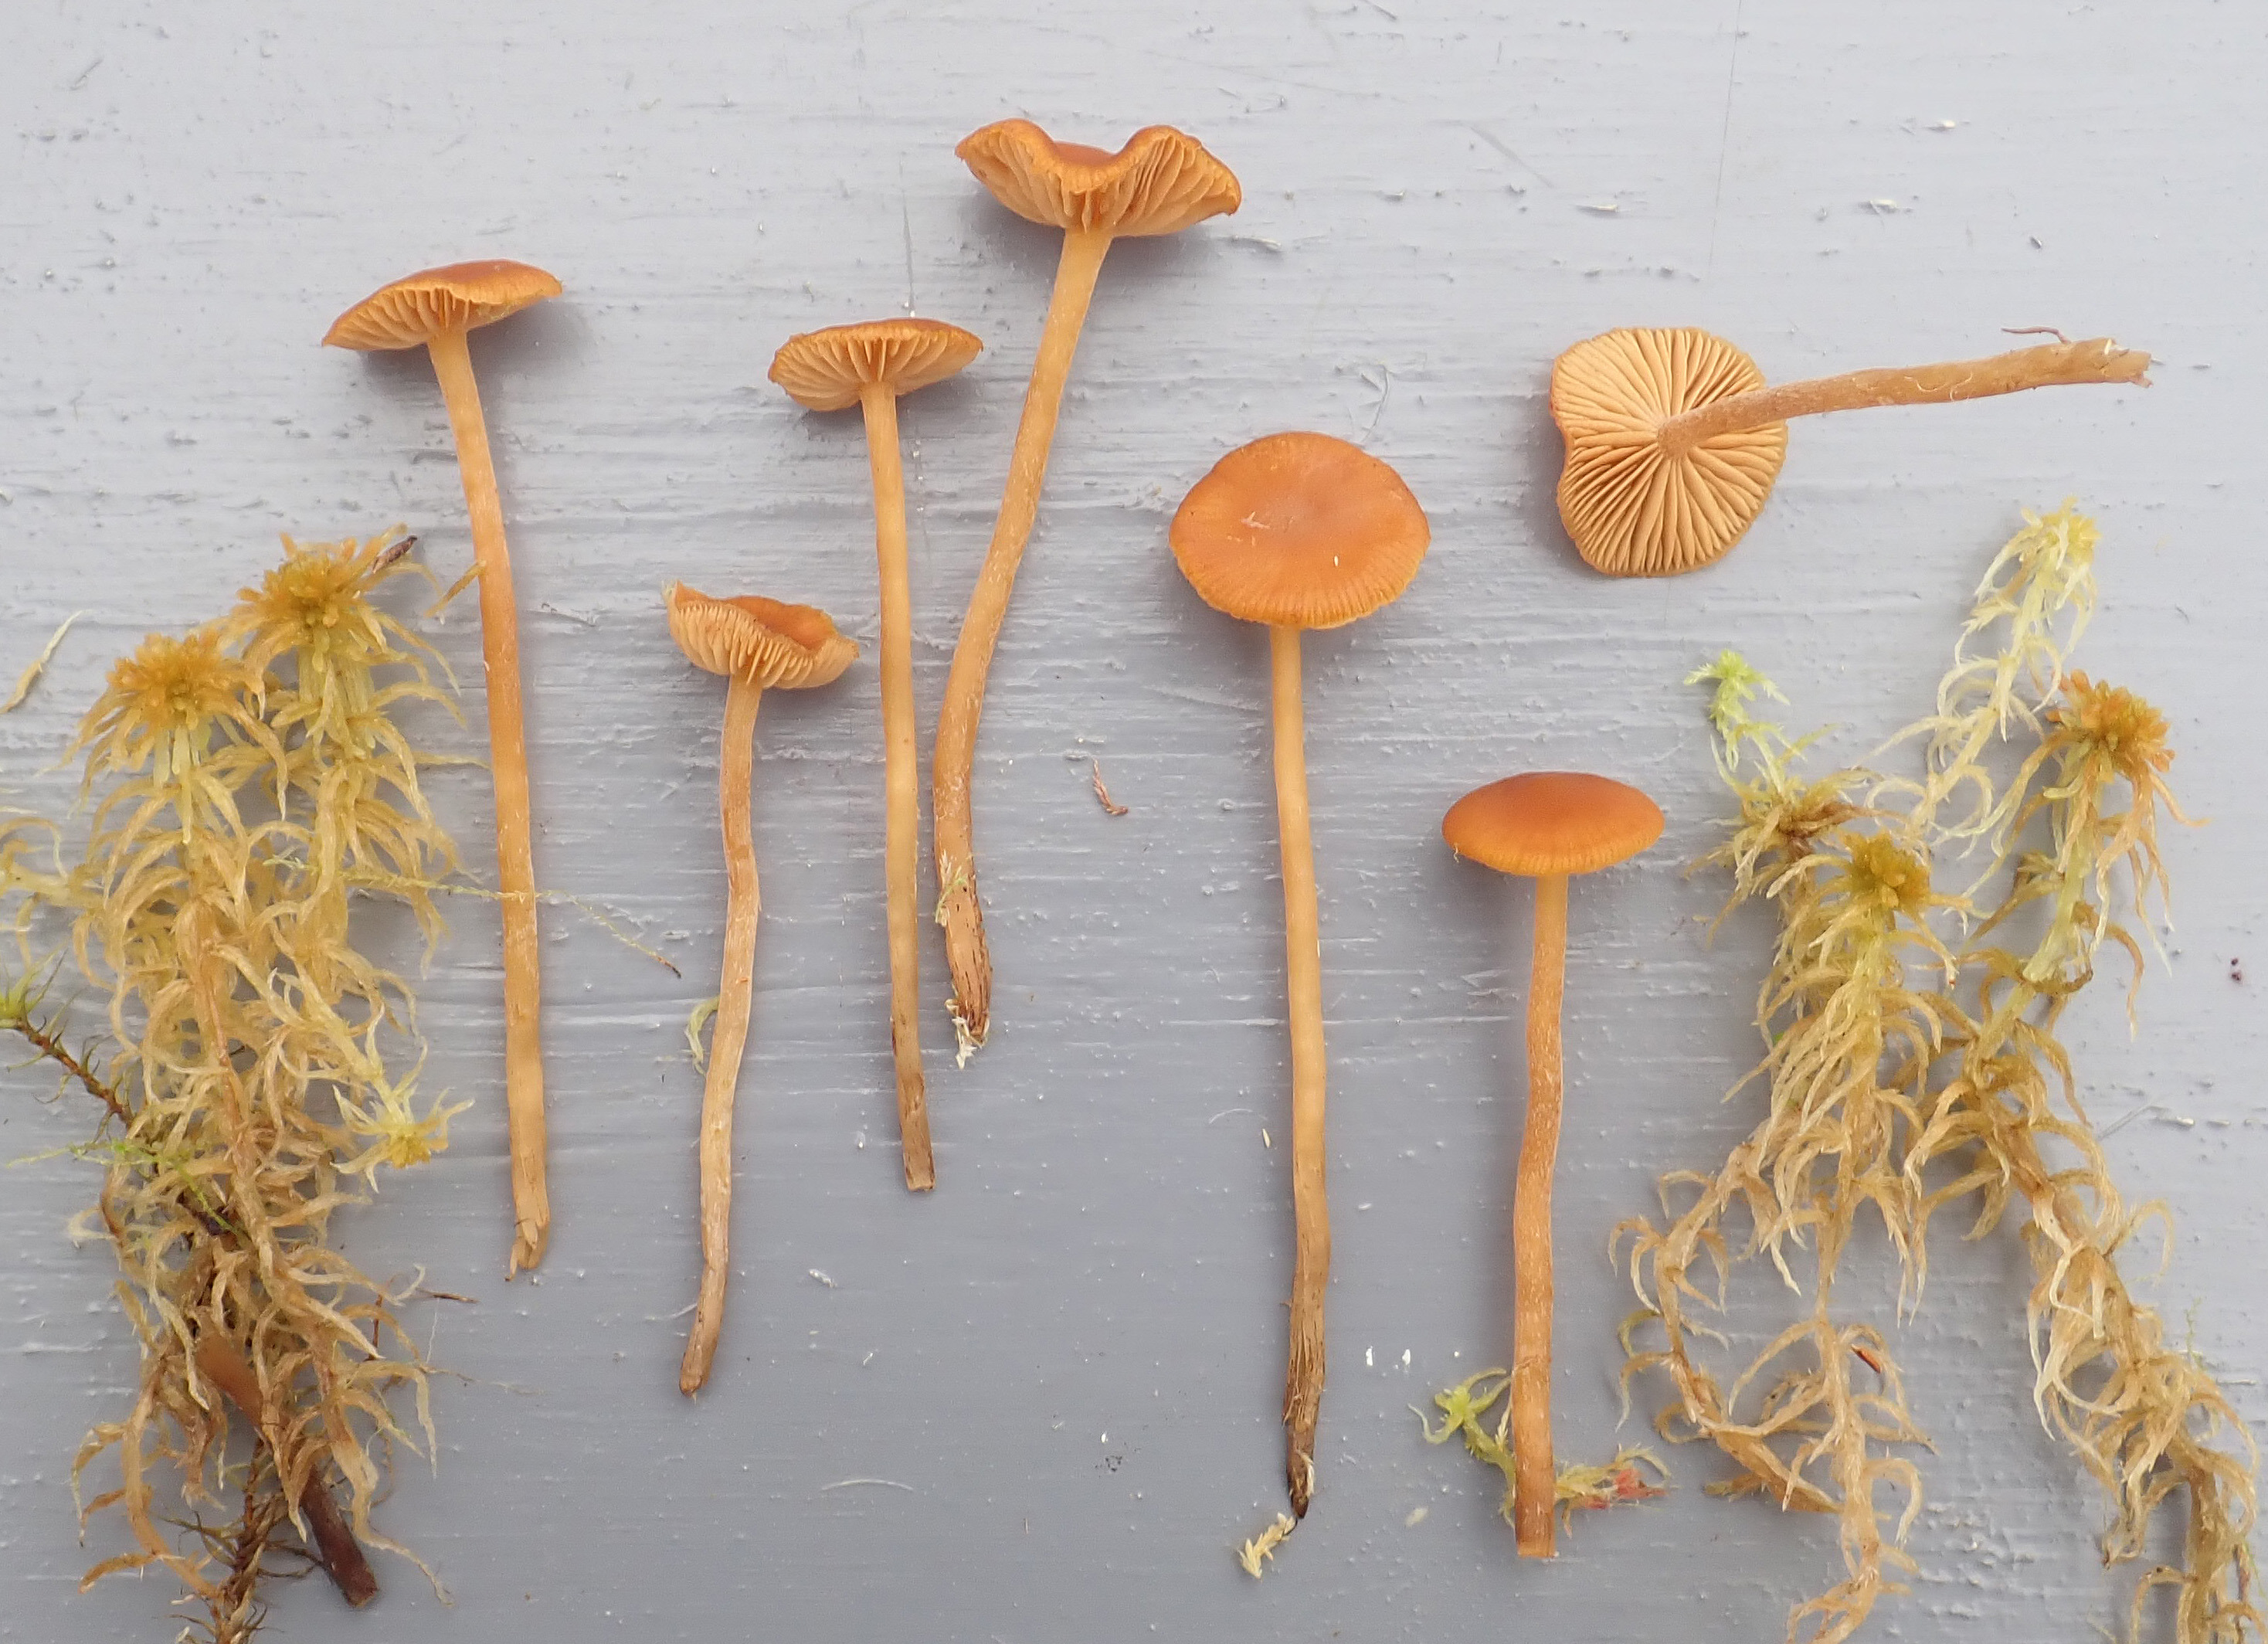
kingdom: Fungi
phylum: Basidiomycota
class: Agaricomycetes
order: Agaricales
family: Hymenogastraceae
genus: Galerina
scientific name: Galerina hybrida
